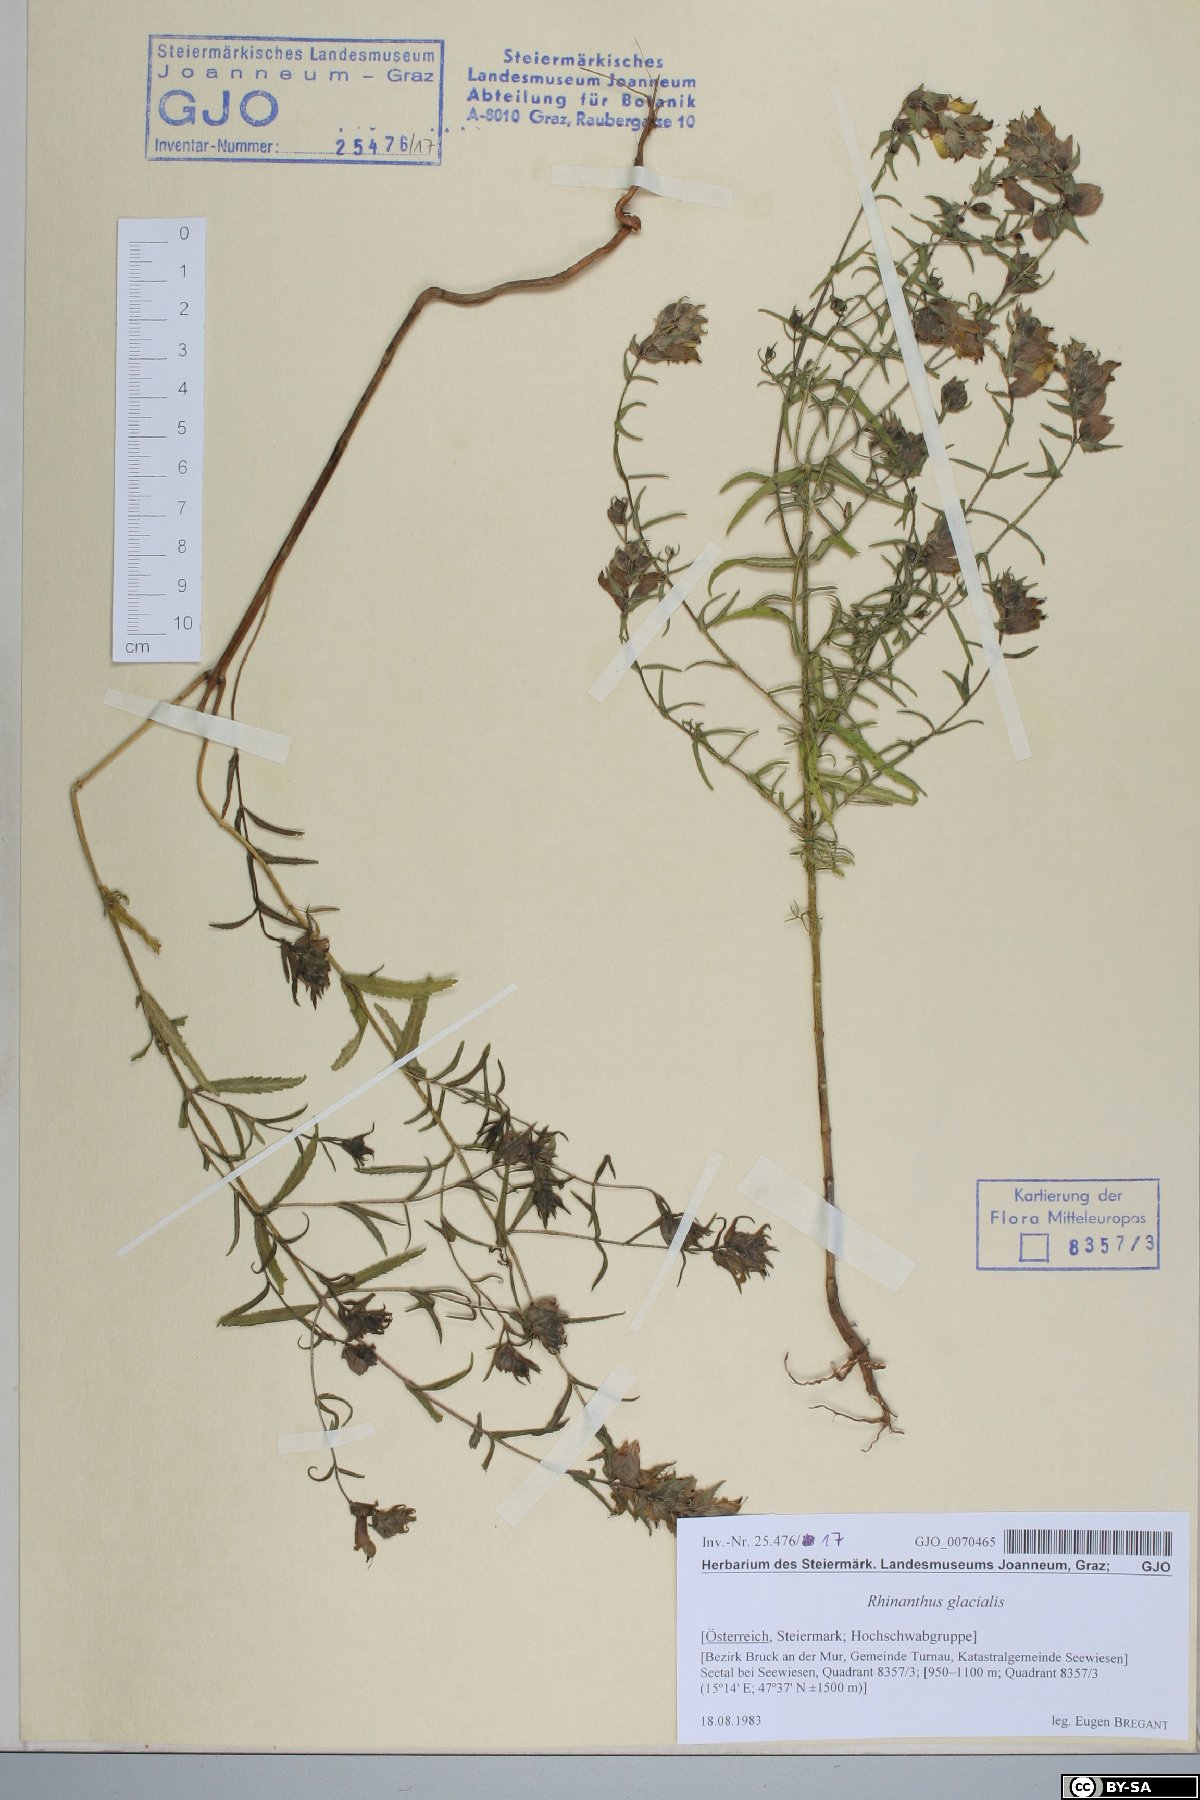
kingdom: Plantae
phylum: Tracheophyta
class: Magnoliopsida
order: Lamiales
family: Orobanchaceae
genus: Rhinanthus
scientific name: Rhinanthus glacialis
